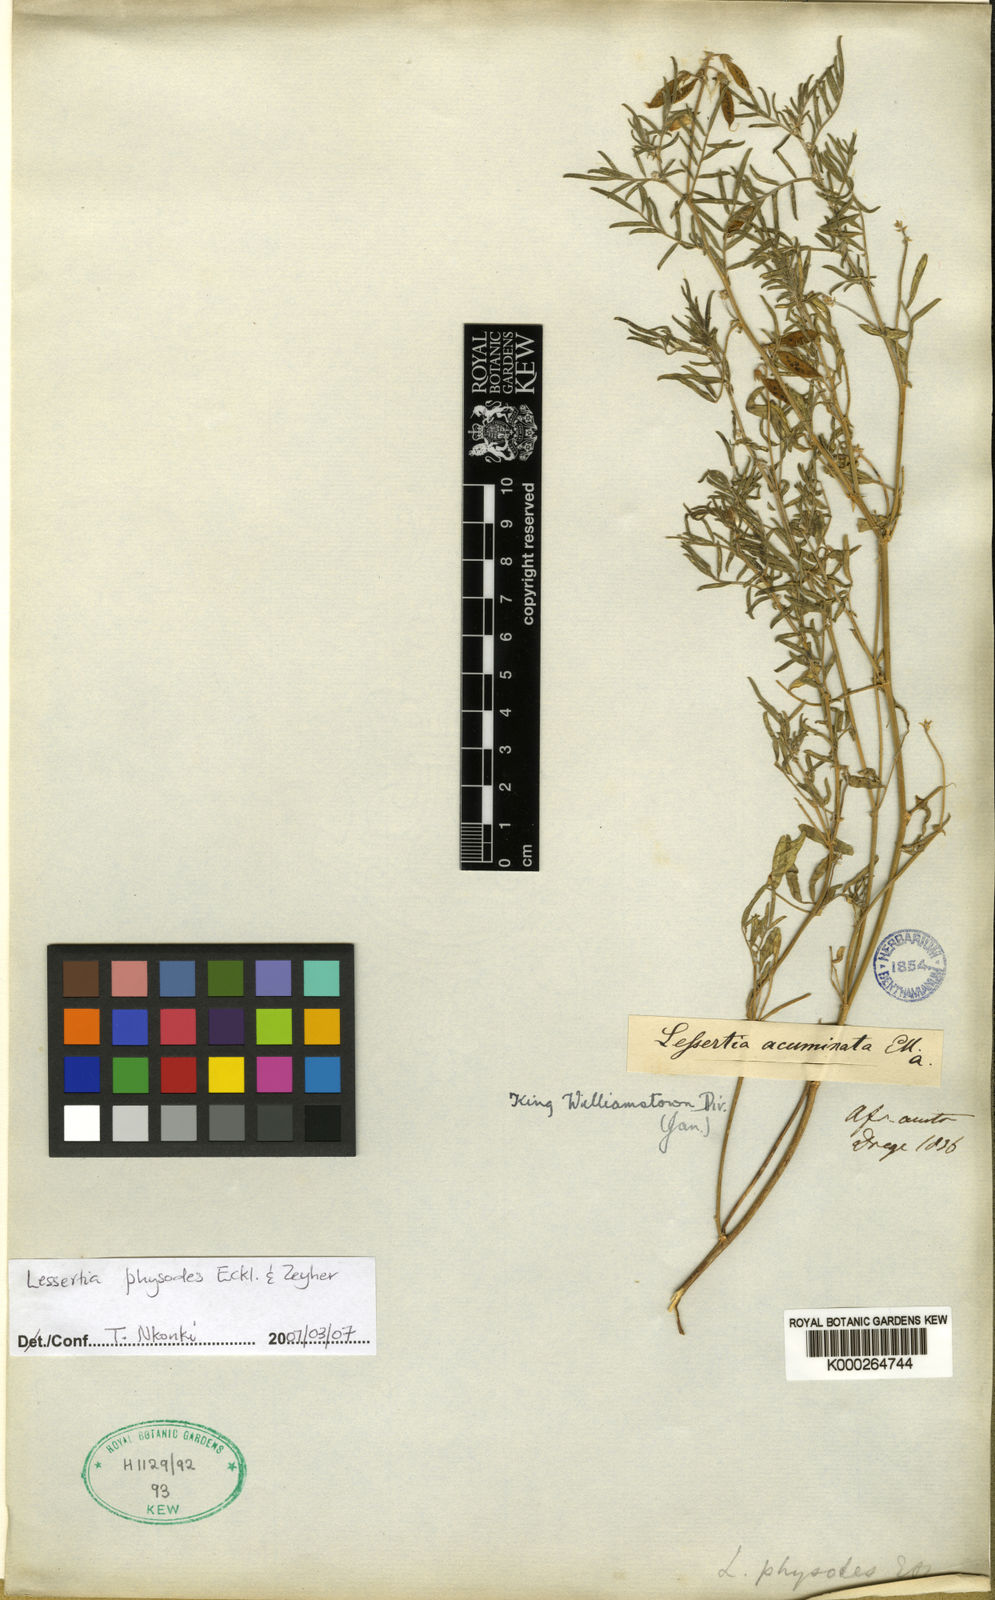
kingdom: Plantae
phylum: Tracheophyta
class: Magnoliopsida
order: Fabales
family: Fabaceae
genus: Lessertia
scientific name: Lessertia physodes
